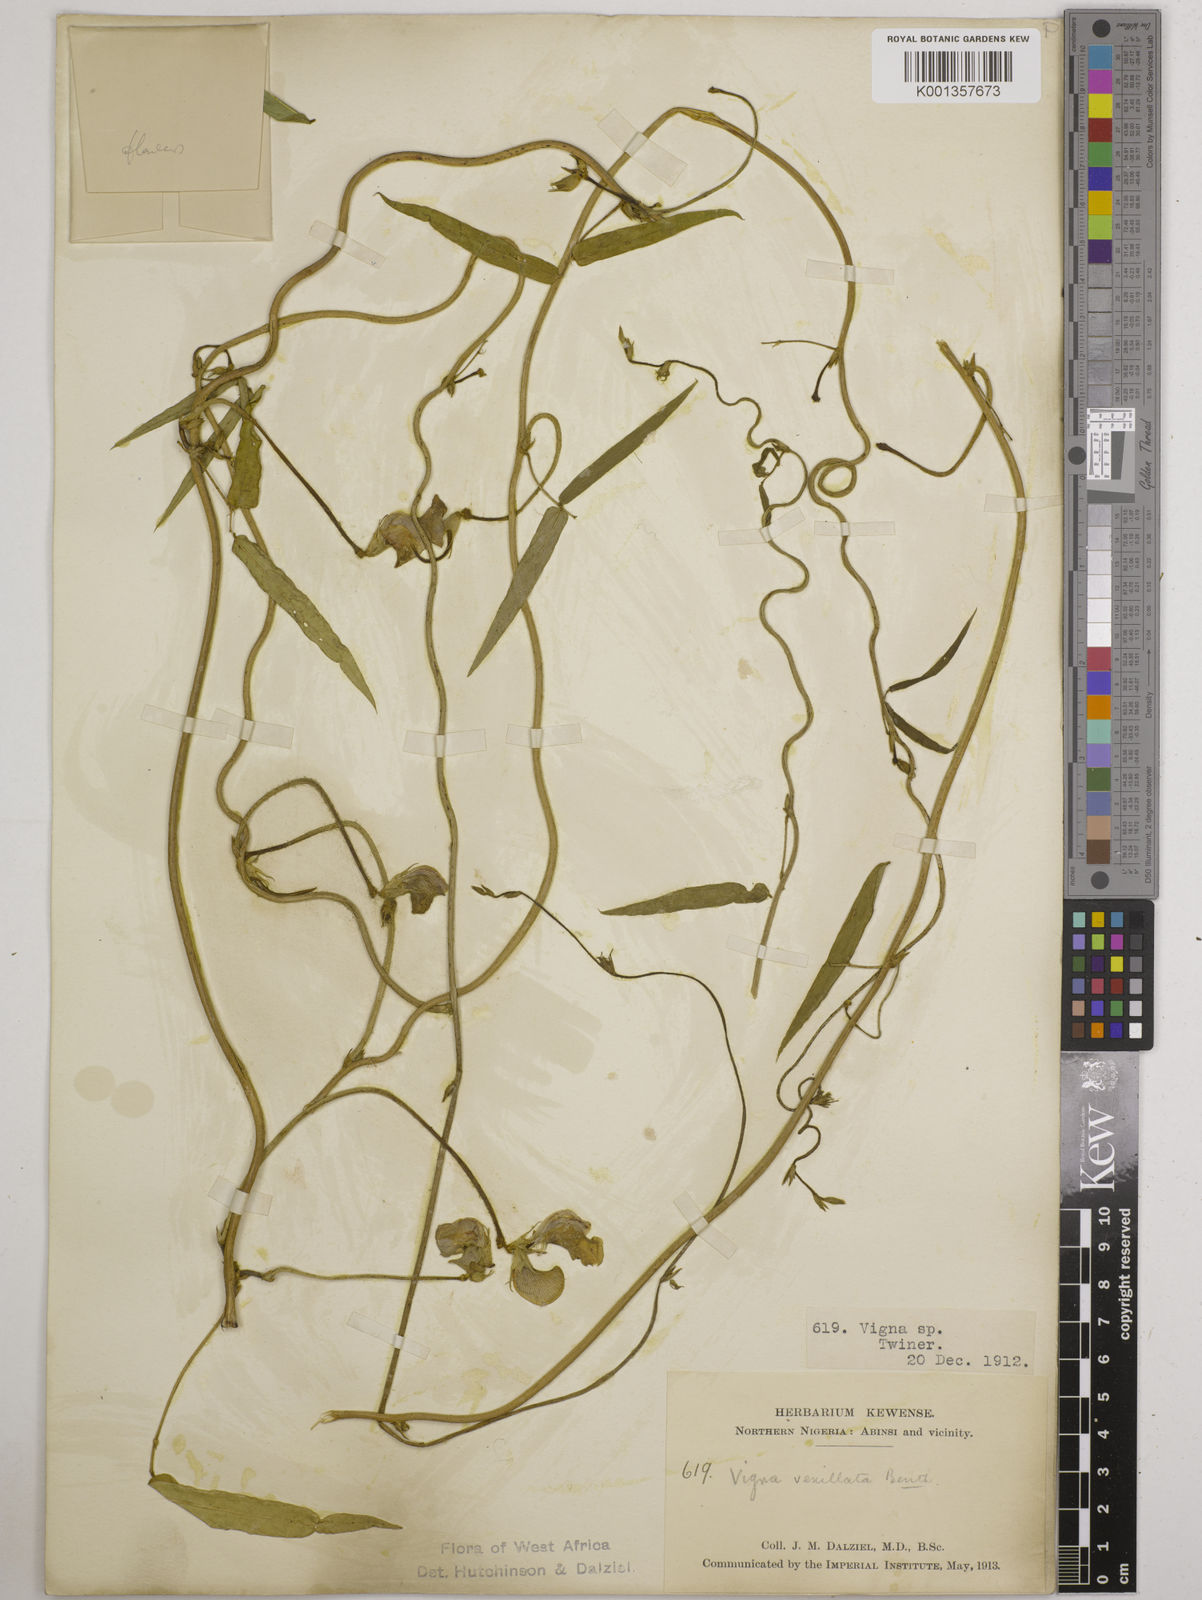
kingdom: Plantae
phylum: Tracheophyta
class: Magnoliopsida
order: Fabales
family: Fabaceae
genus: Vigna
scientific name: Vigna vexillata
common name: Zombi pea
